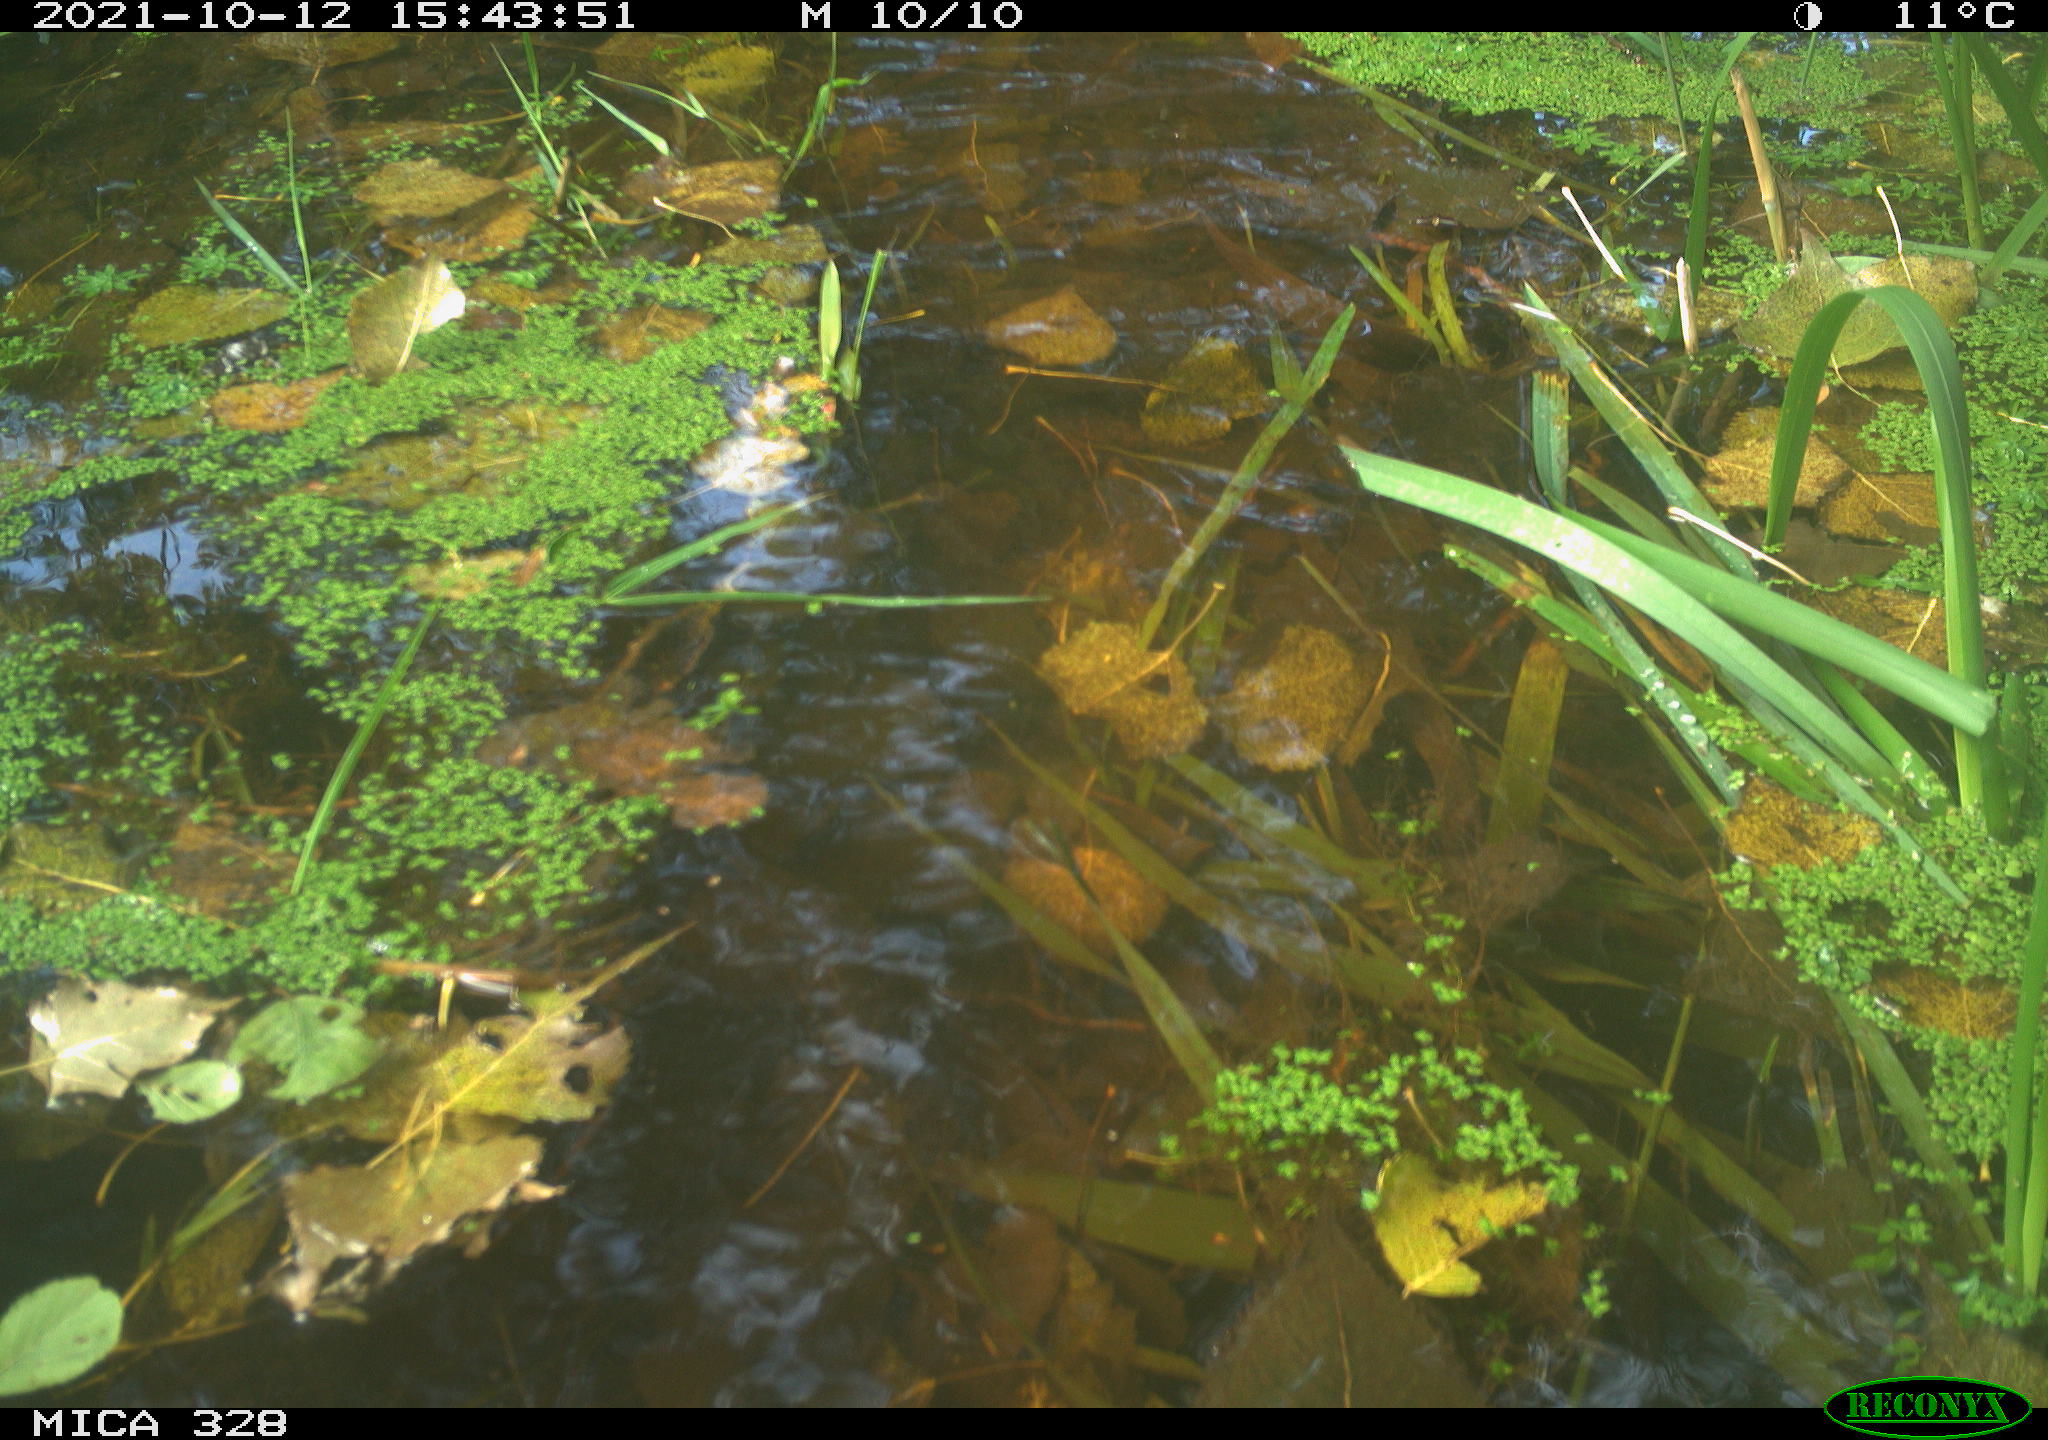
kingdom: Animalia
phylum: Chordata
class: Mammalia
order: Rodentia
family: Cricetidae
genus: Ondatra
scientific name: Ondatra zibethicus
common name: Muskrat
